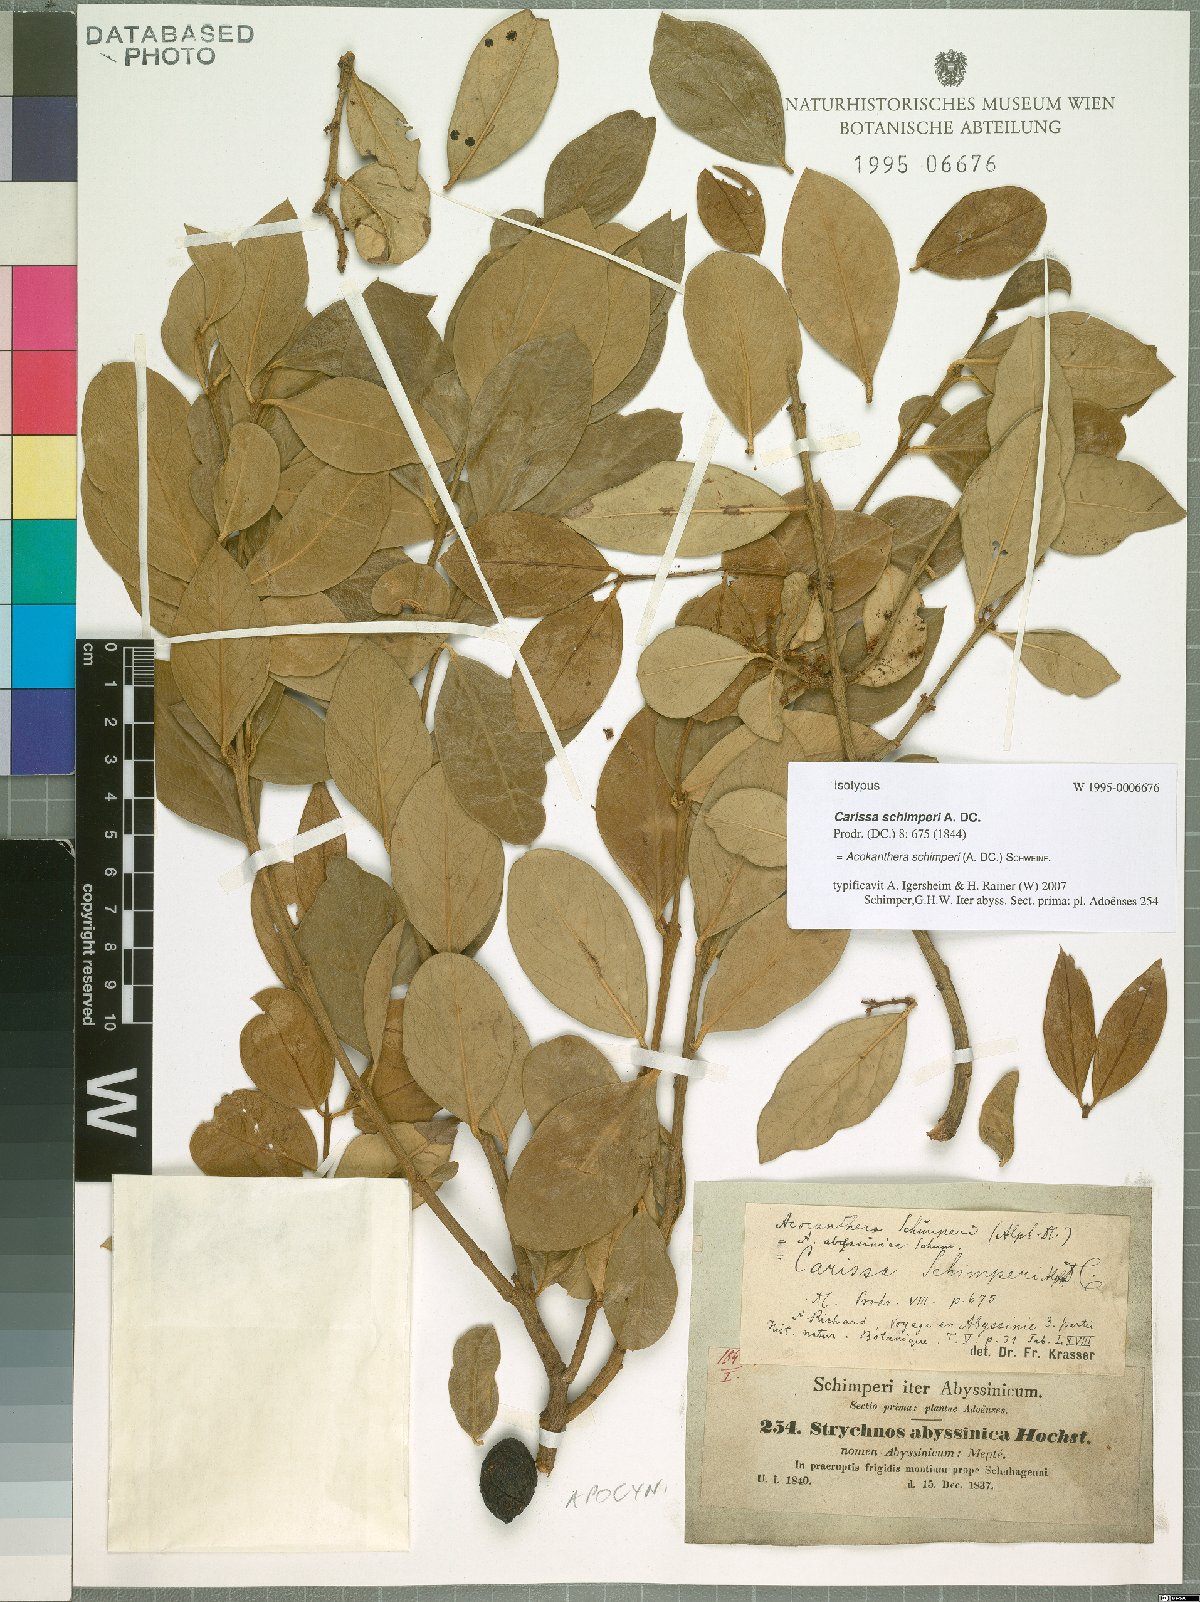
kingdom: Plantae
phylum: Tracheophyta
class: Magnoliopsida
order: Gentianales
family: Apocynaceae
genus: Acokanthera
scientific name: Acokanthera schimperi
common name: Arrow-poison-tree
